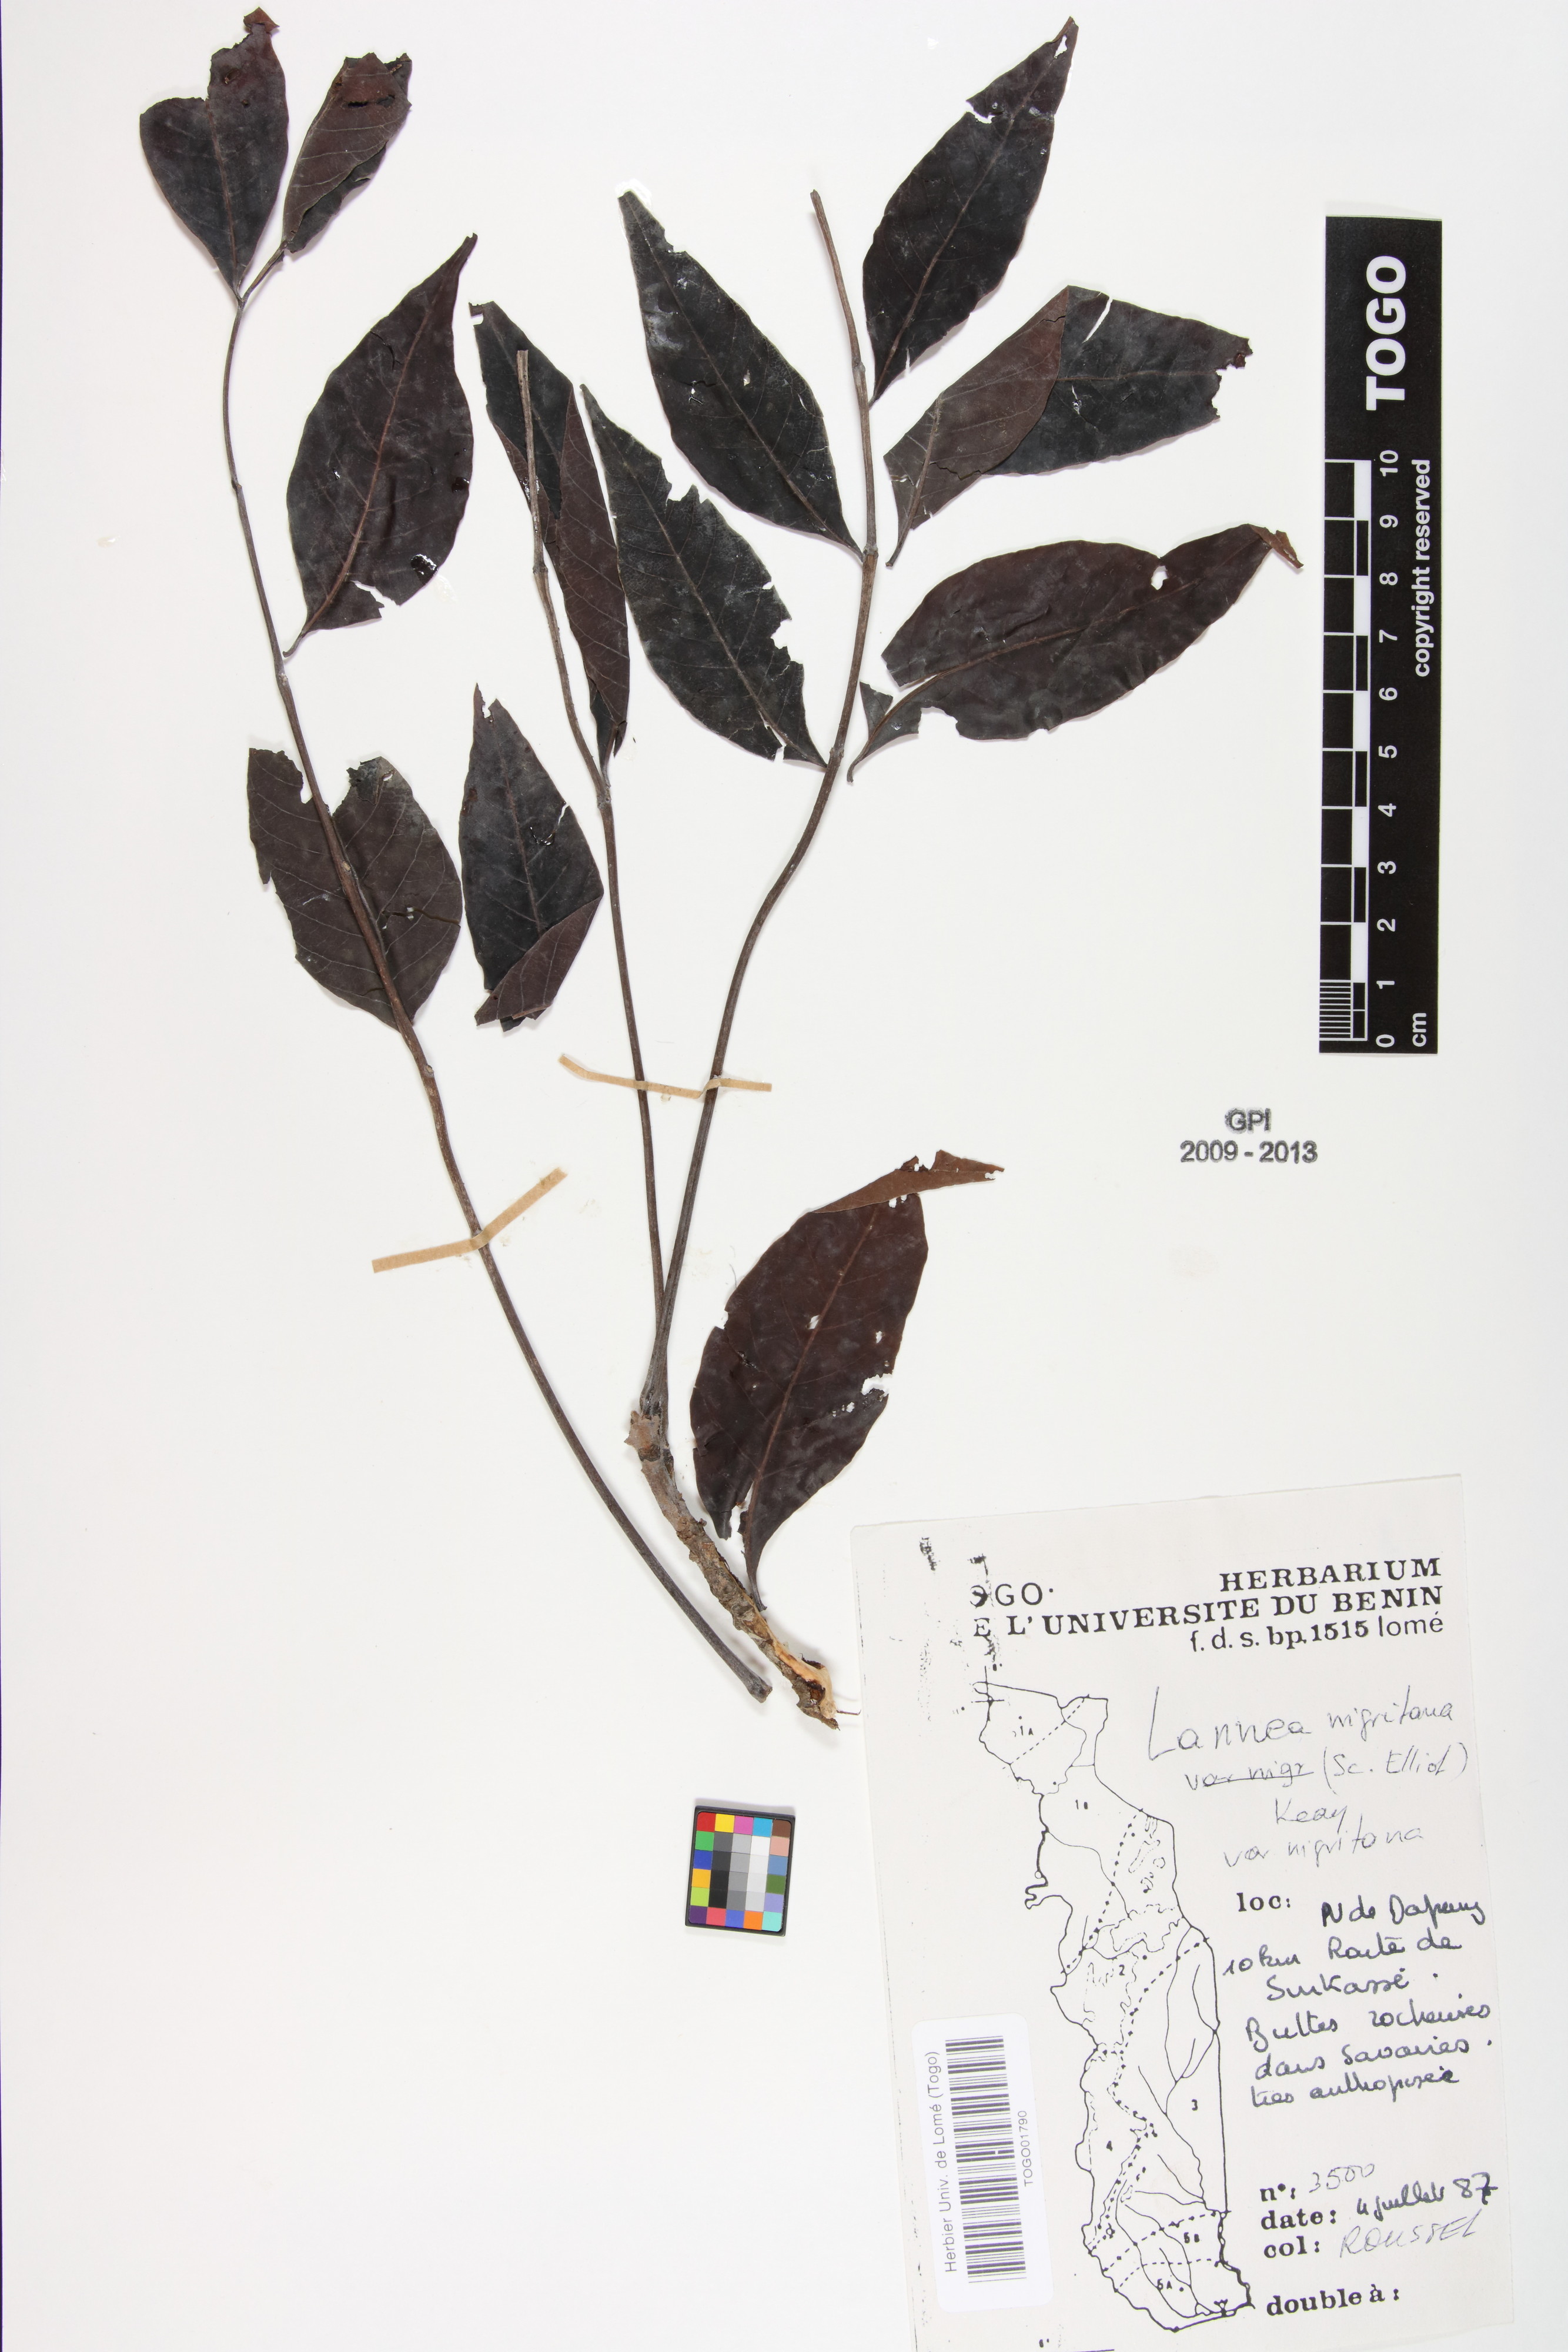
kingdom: Plantae
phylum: Tracheophyta
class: Magnoliopsida
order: Sapindales
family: Anacardiaceae
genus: Lannea
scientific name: Lannea nigritana
